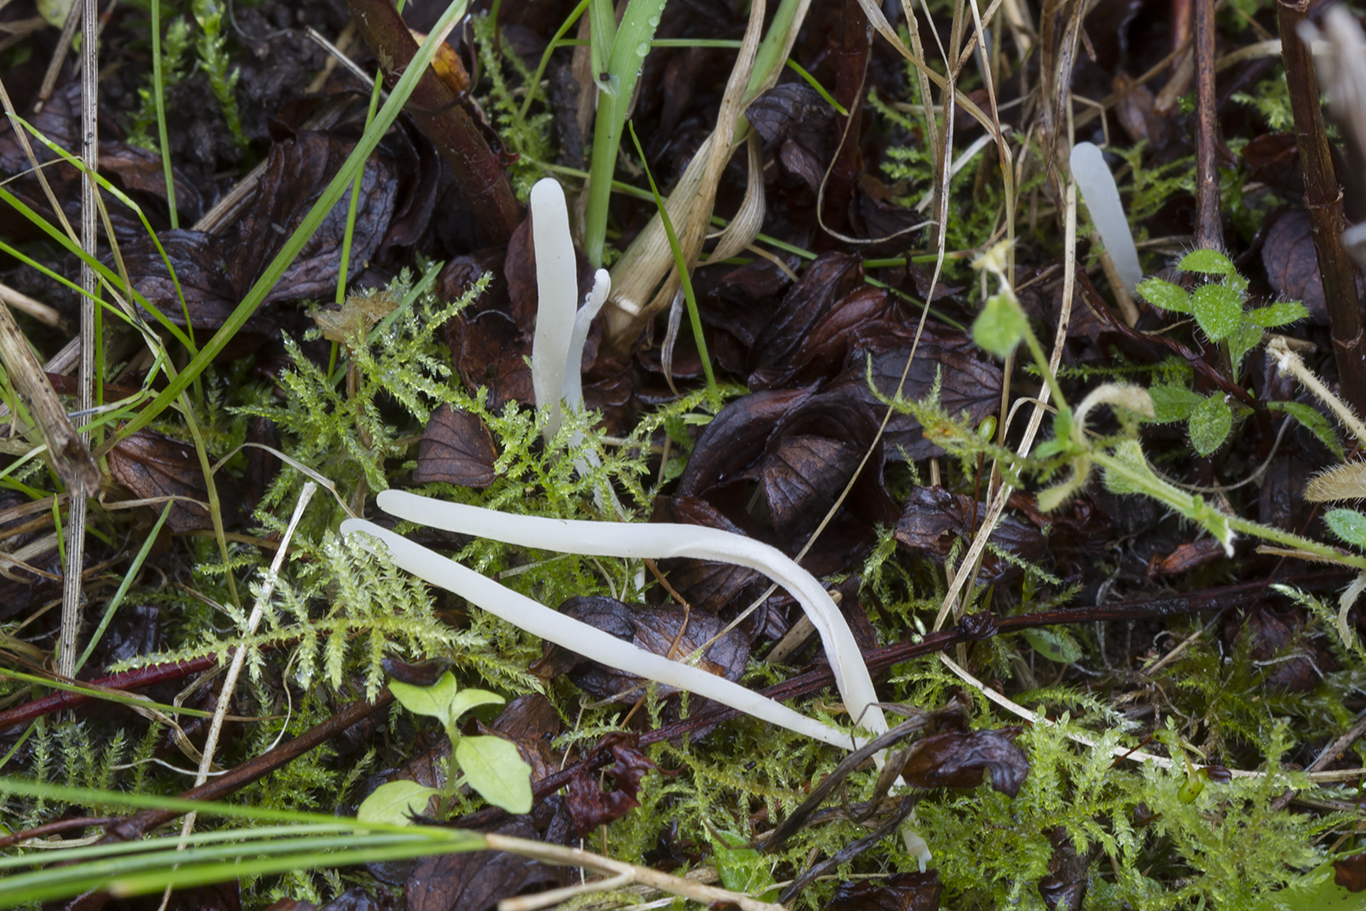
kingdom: Fungi
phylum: Basidiomycota
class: Agaricomycetes
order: Agaricales
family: Clavariaceae
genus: Clavaria
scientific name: Clavaria fragilis
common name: bugtet køllesvamp
